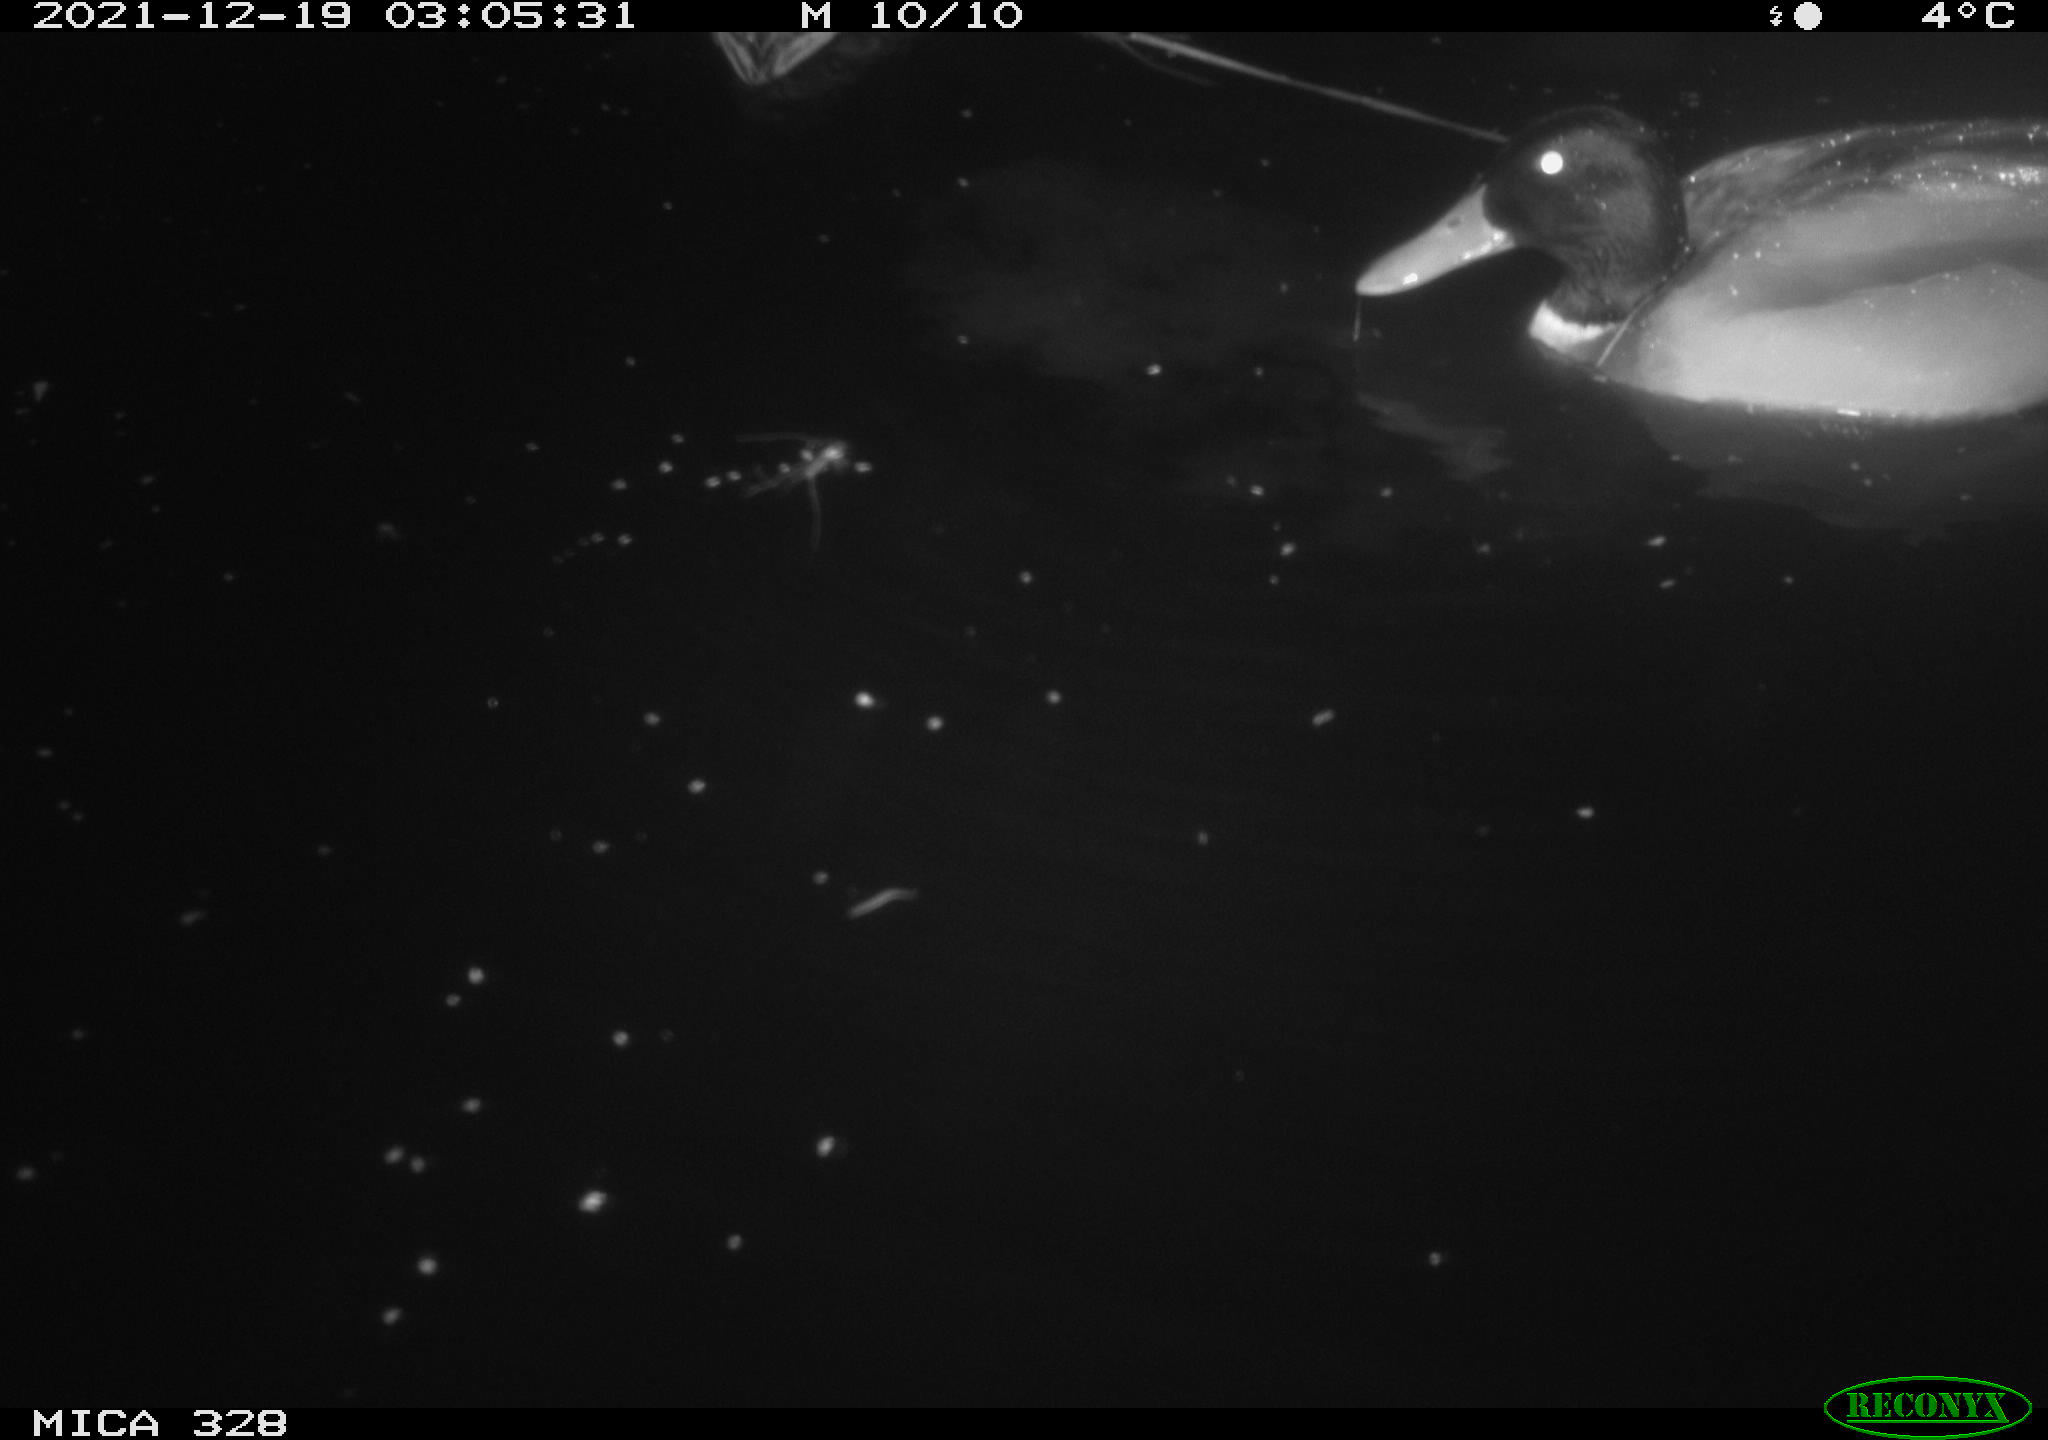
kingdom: Animalia
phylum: Chordata
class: Aves
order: Anseriformes
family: Anatidae
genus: Anas
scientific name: Anas platyrhynchos
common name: Mallard
